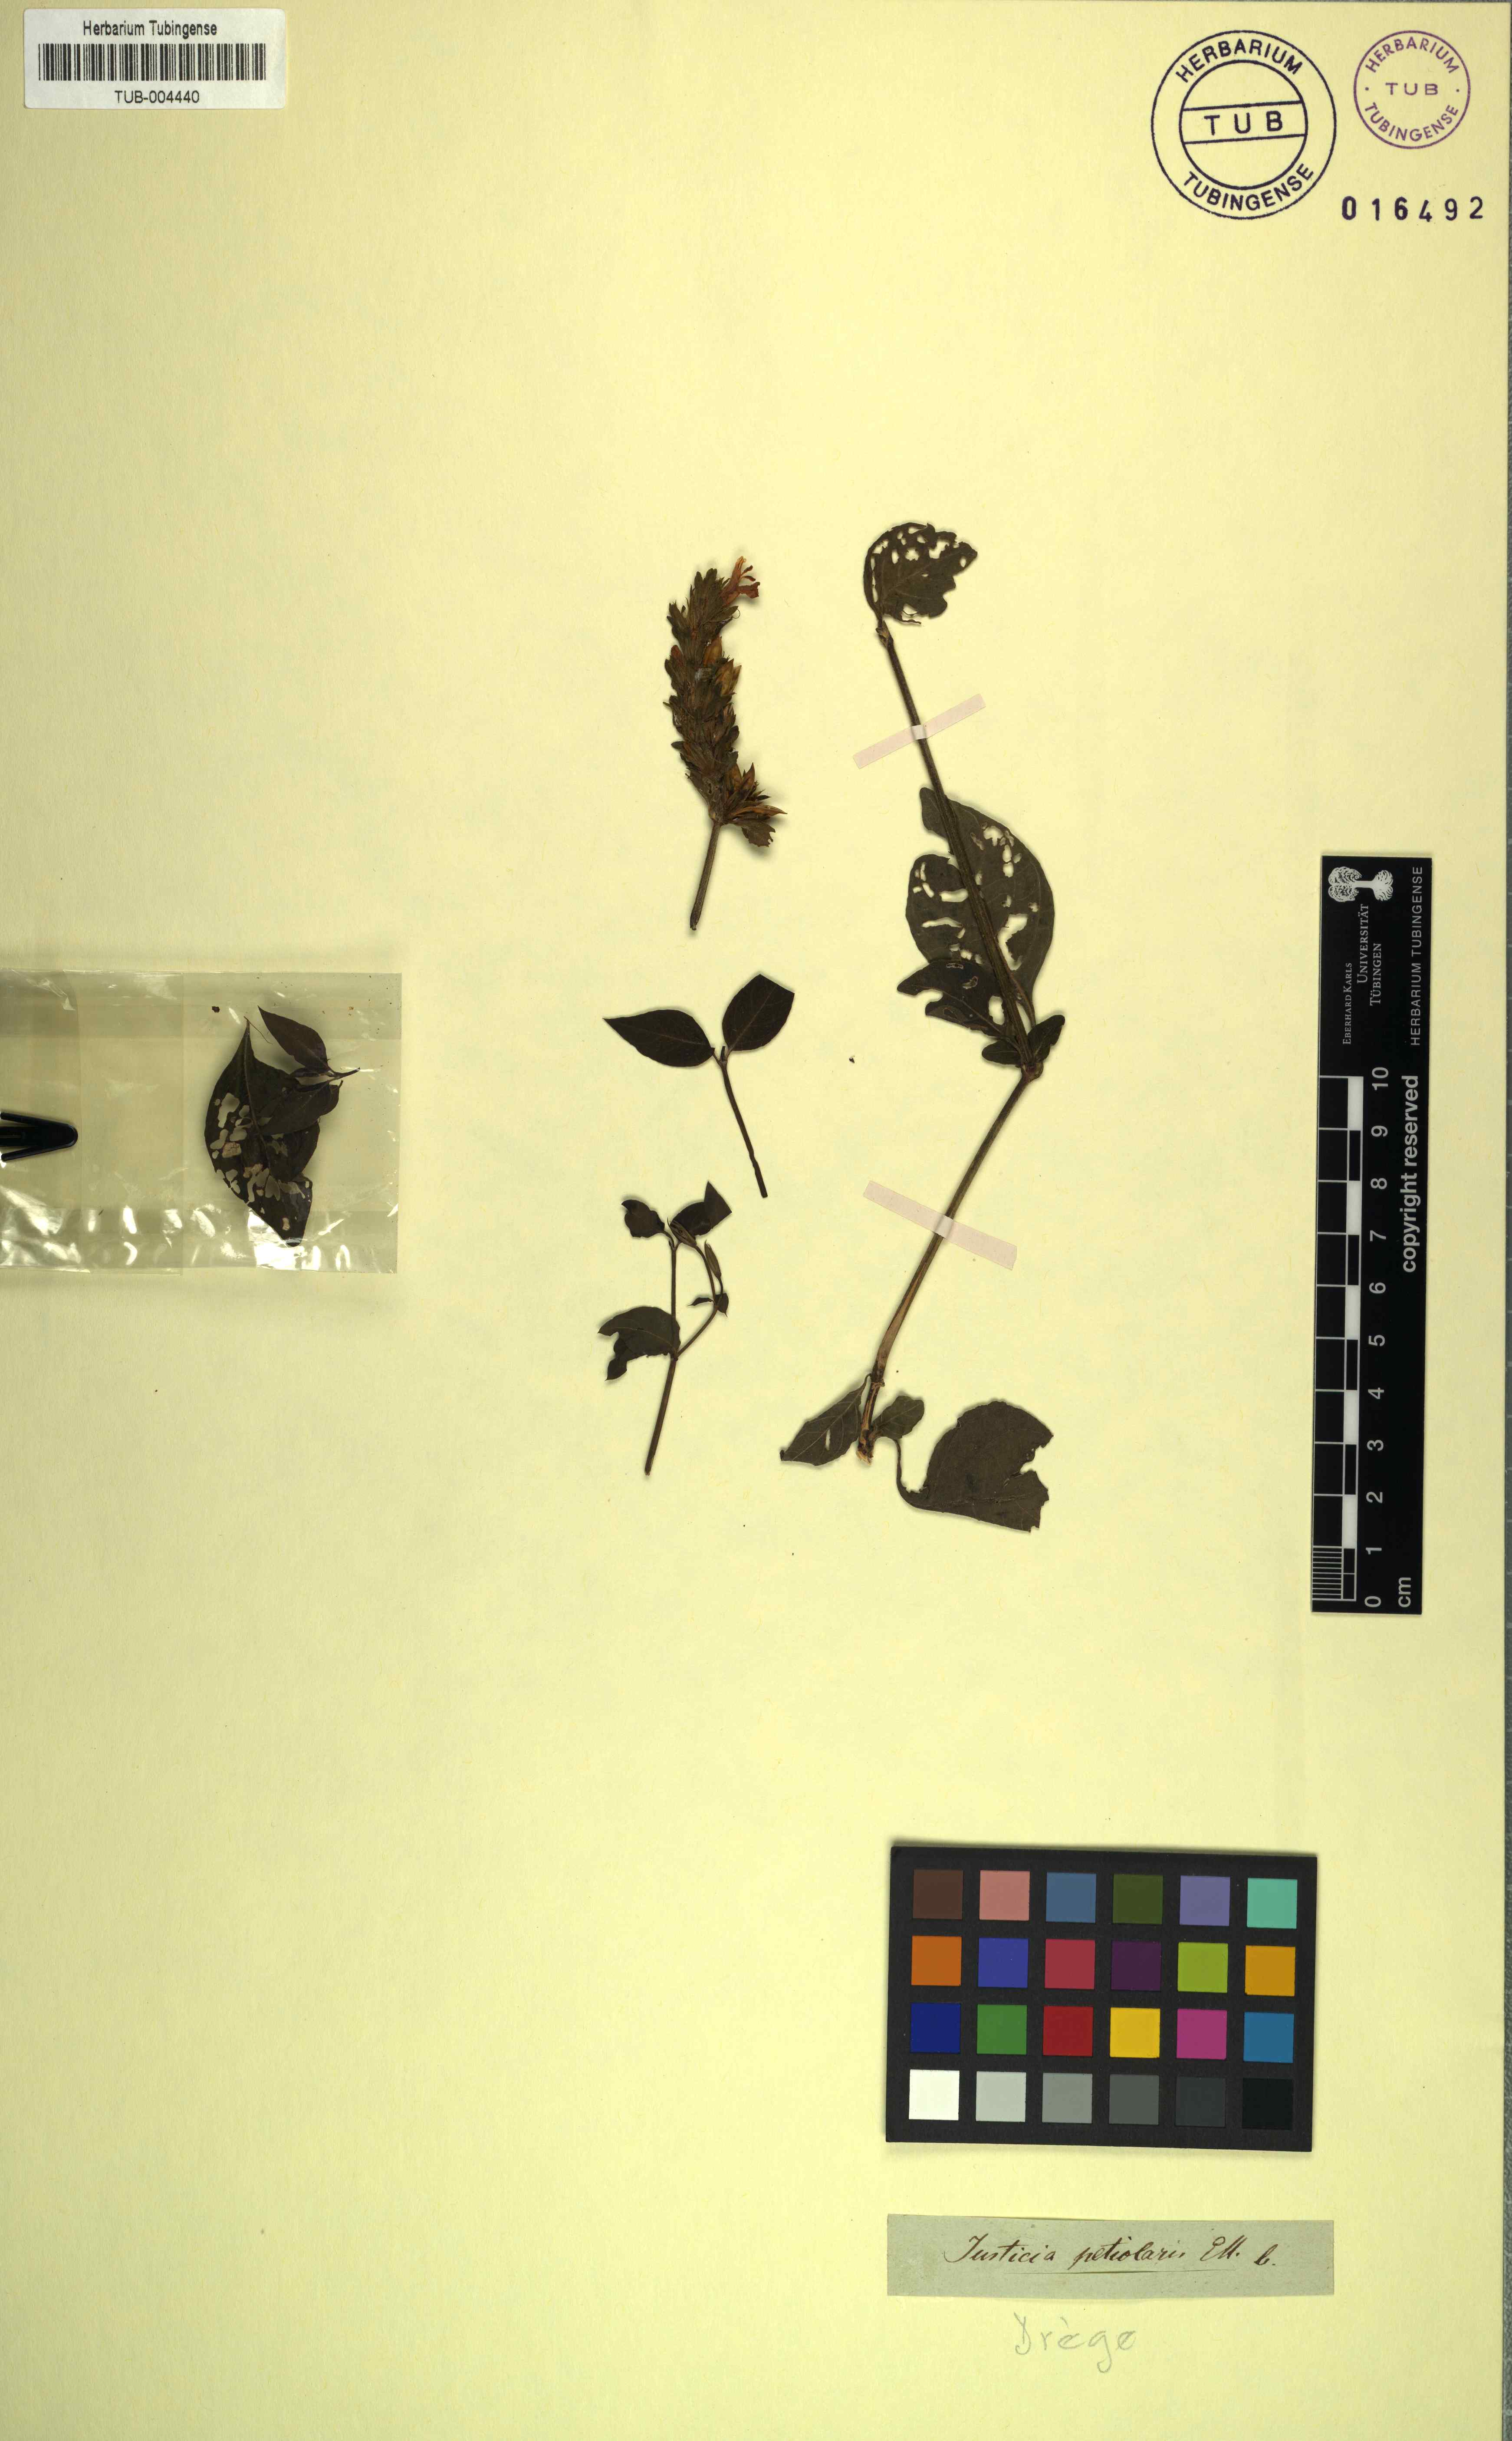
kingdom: Plantae
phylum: Tracheophyta
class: Magnoliopsida
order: Lamiales
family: Acanthaceae
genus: Justicia
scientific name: Justicia petiolaris
